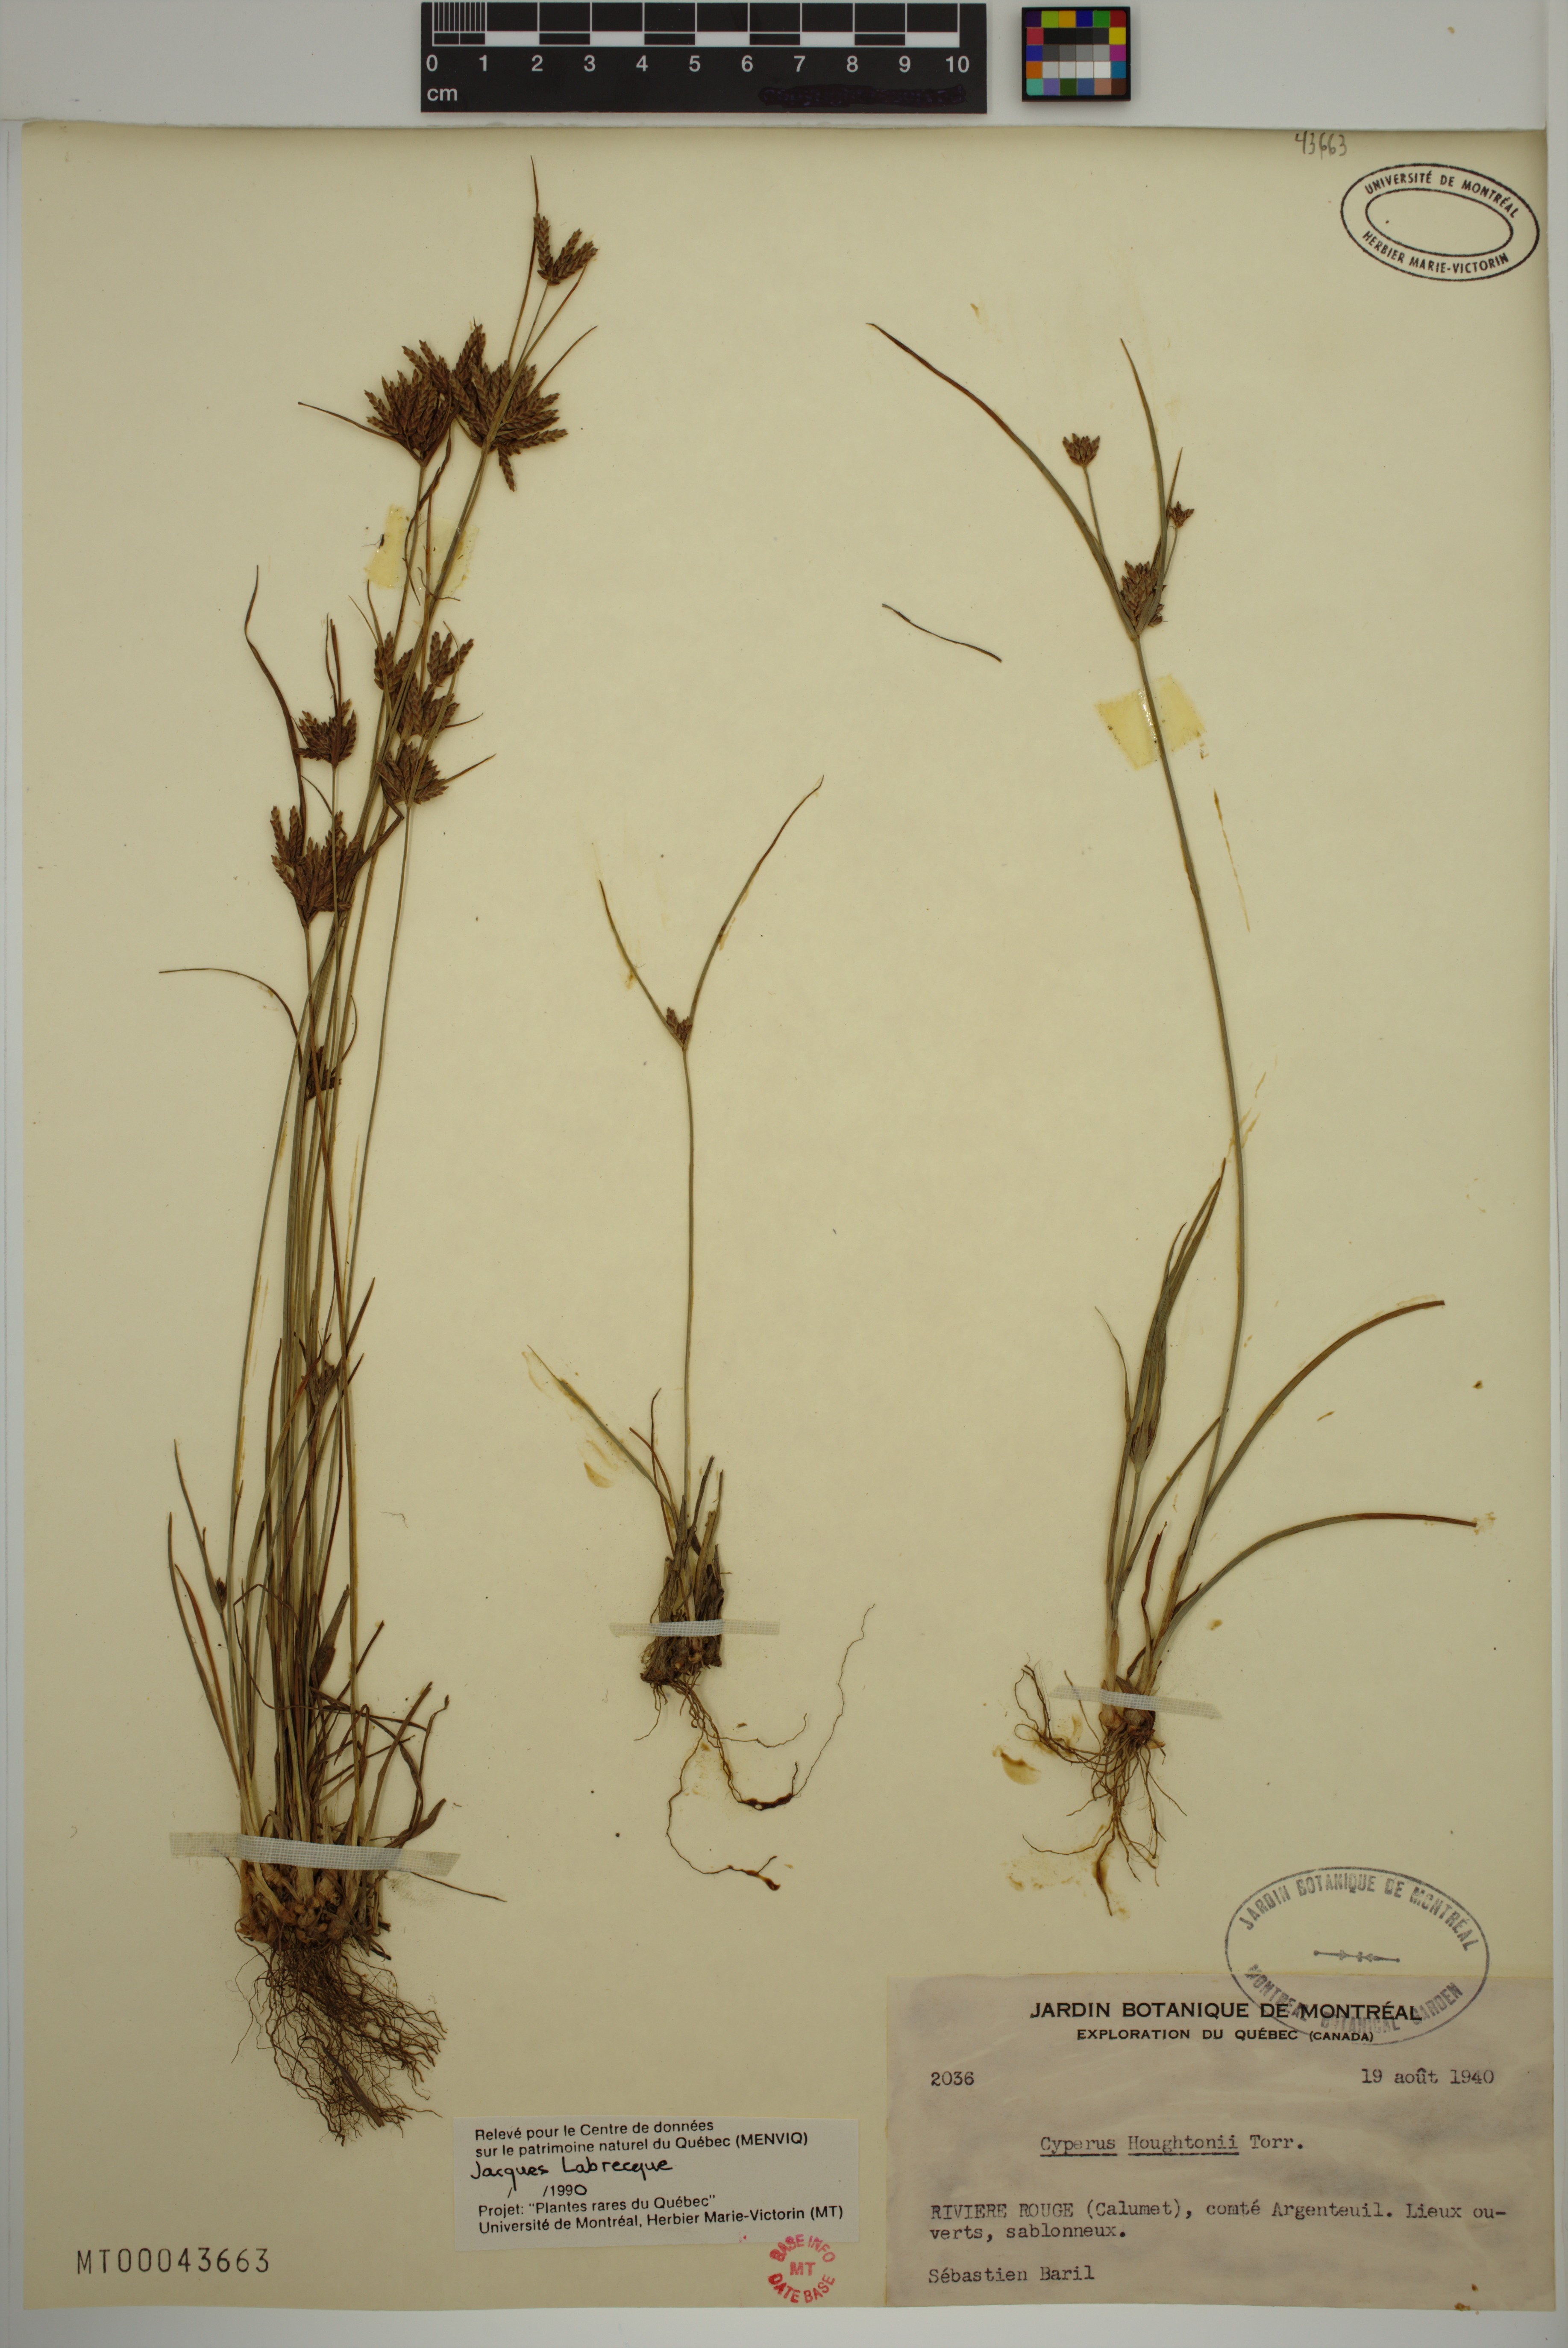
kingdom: Plantae
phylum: Tracheophyta
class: Liliopsida
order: Poales
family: Cyperaceae
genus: Cyperus
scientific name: Cyperus houghtonii
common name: Houghton's cyperus
